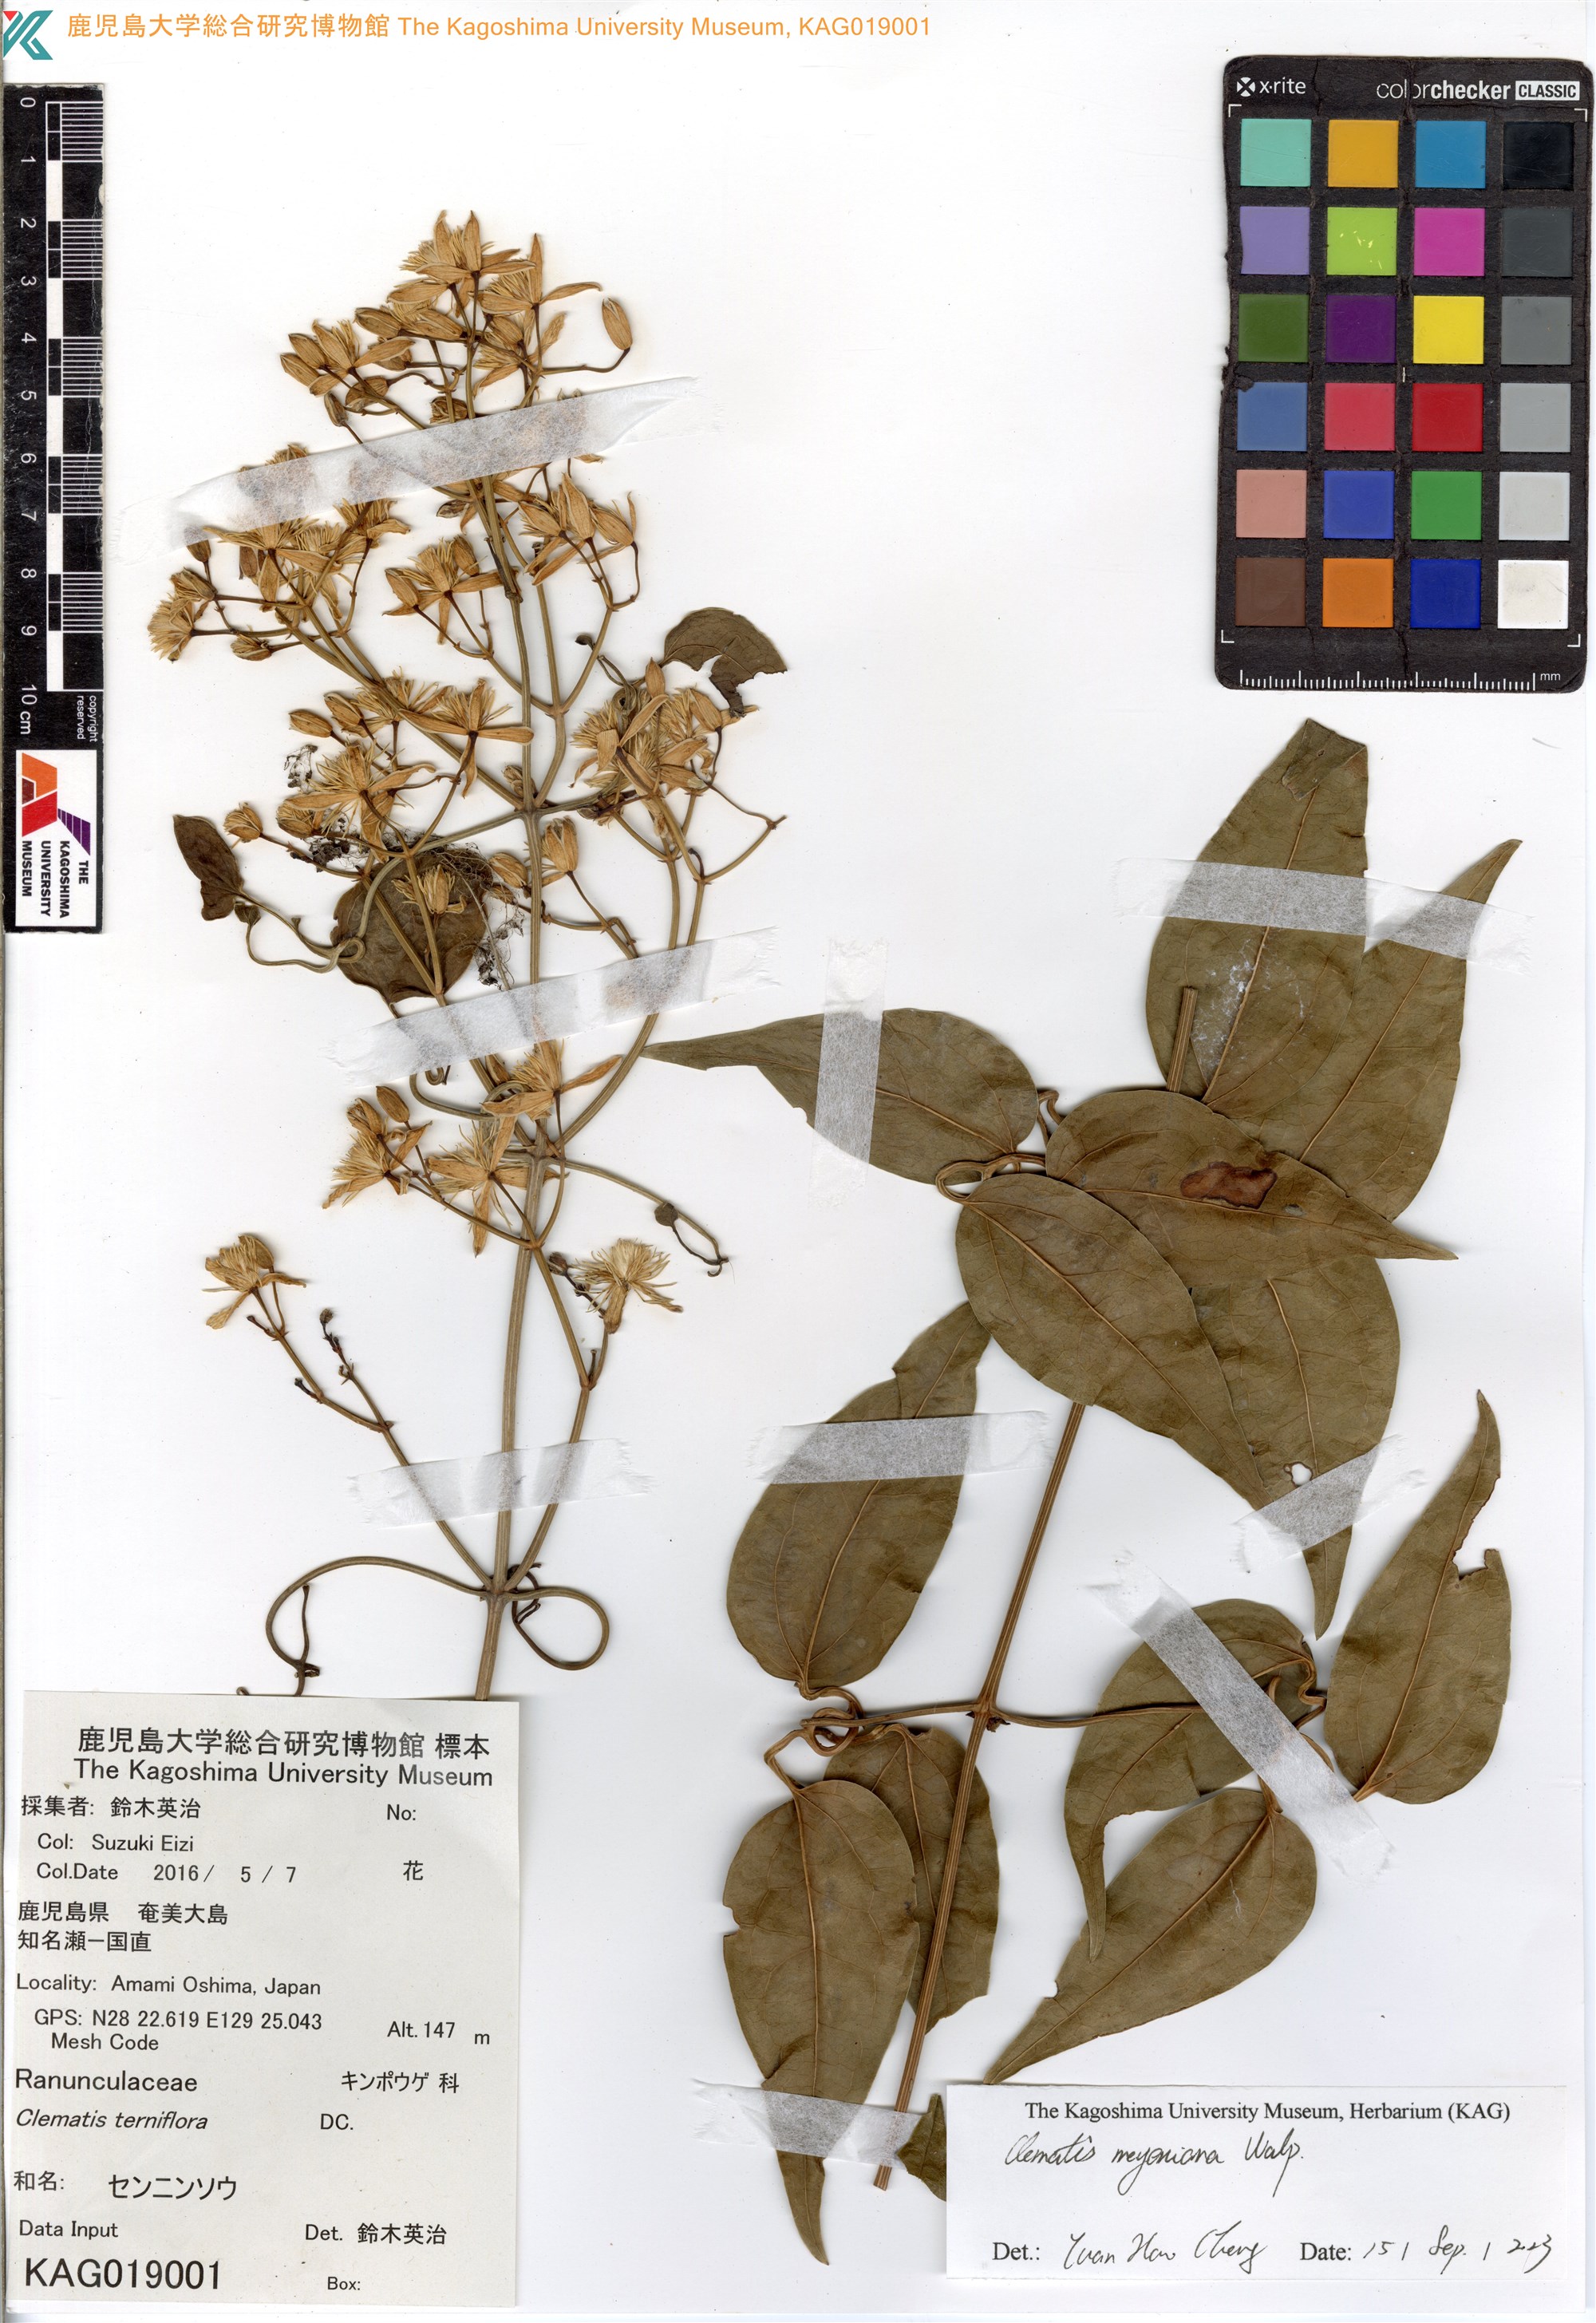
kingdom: Plantae
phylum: Tracheophyta
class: Magnoliopsida
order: Ranunculales
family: Ranunculaceae
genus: Clematis
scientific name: Clematis terniflora
